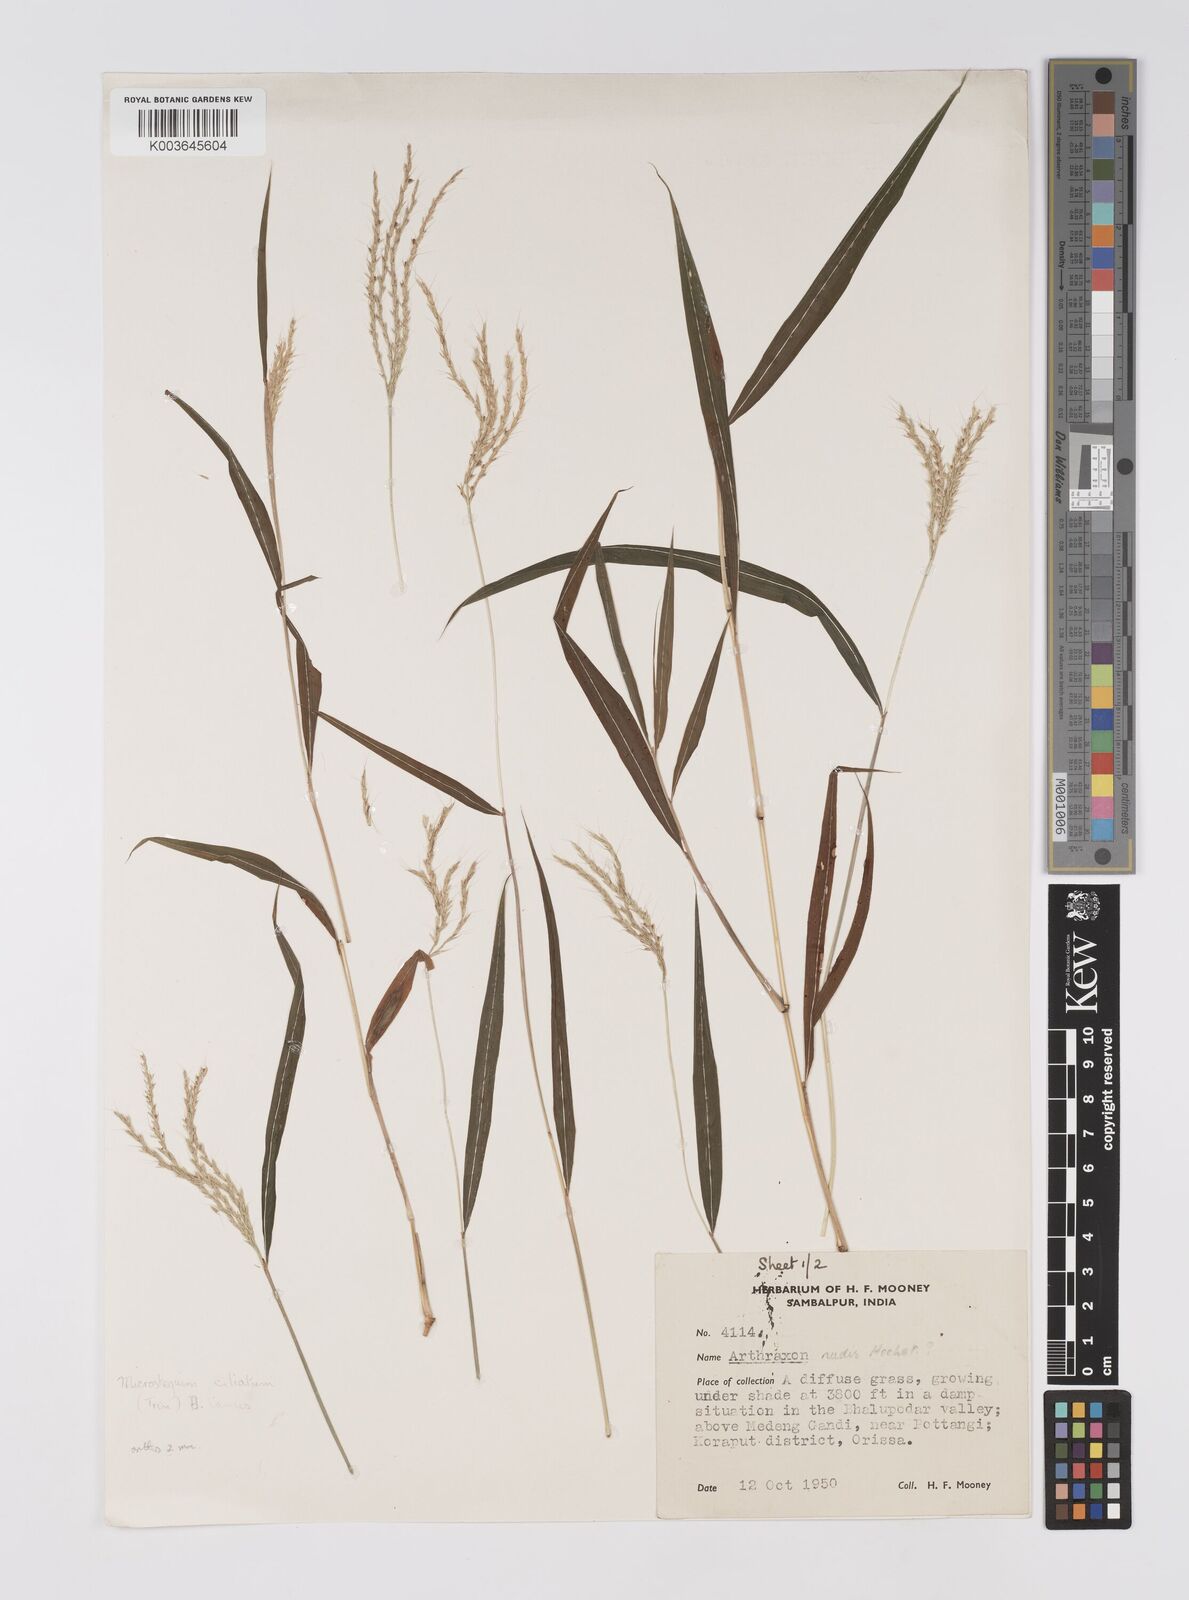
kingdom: Plantae
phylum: Tracheophyta
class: Liliopsida
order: Poales
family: Poaceae
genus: Microstegium
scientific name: Microstegium fasciculatum
